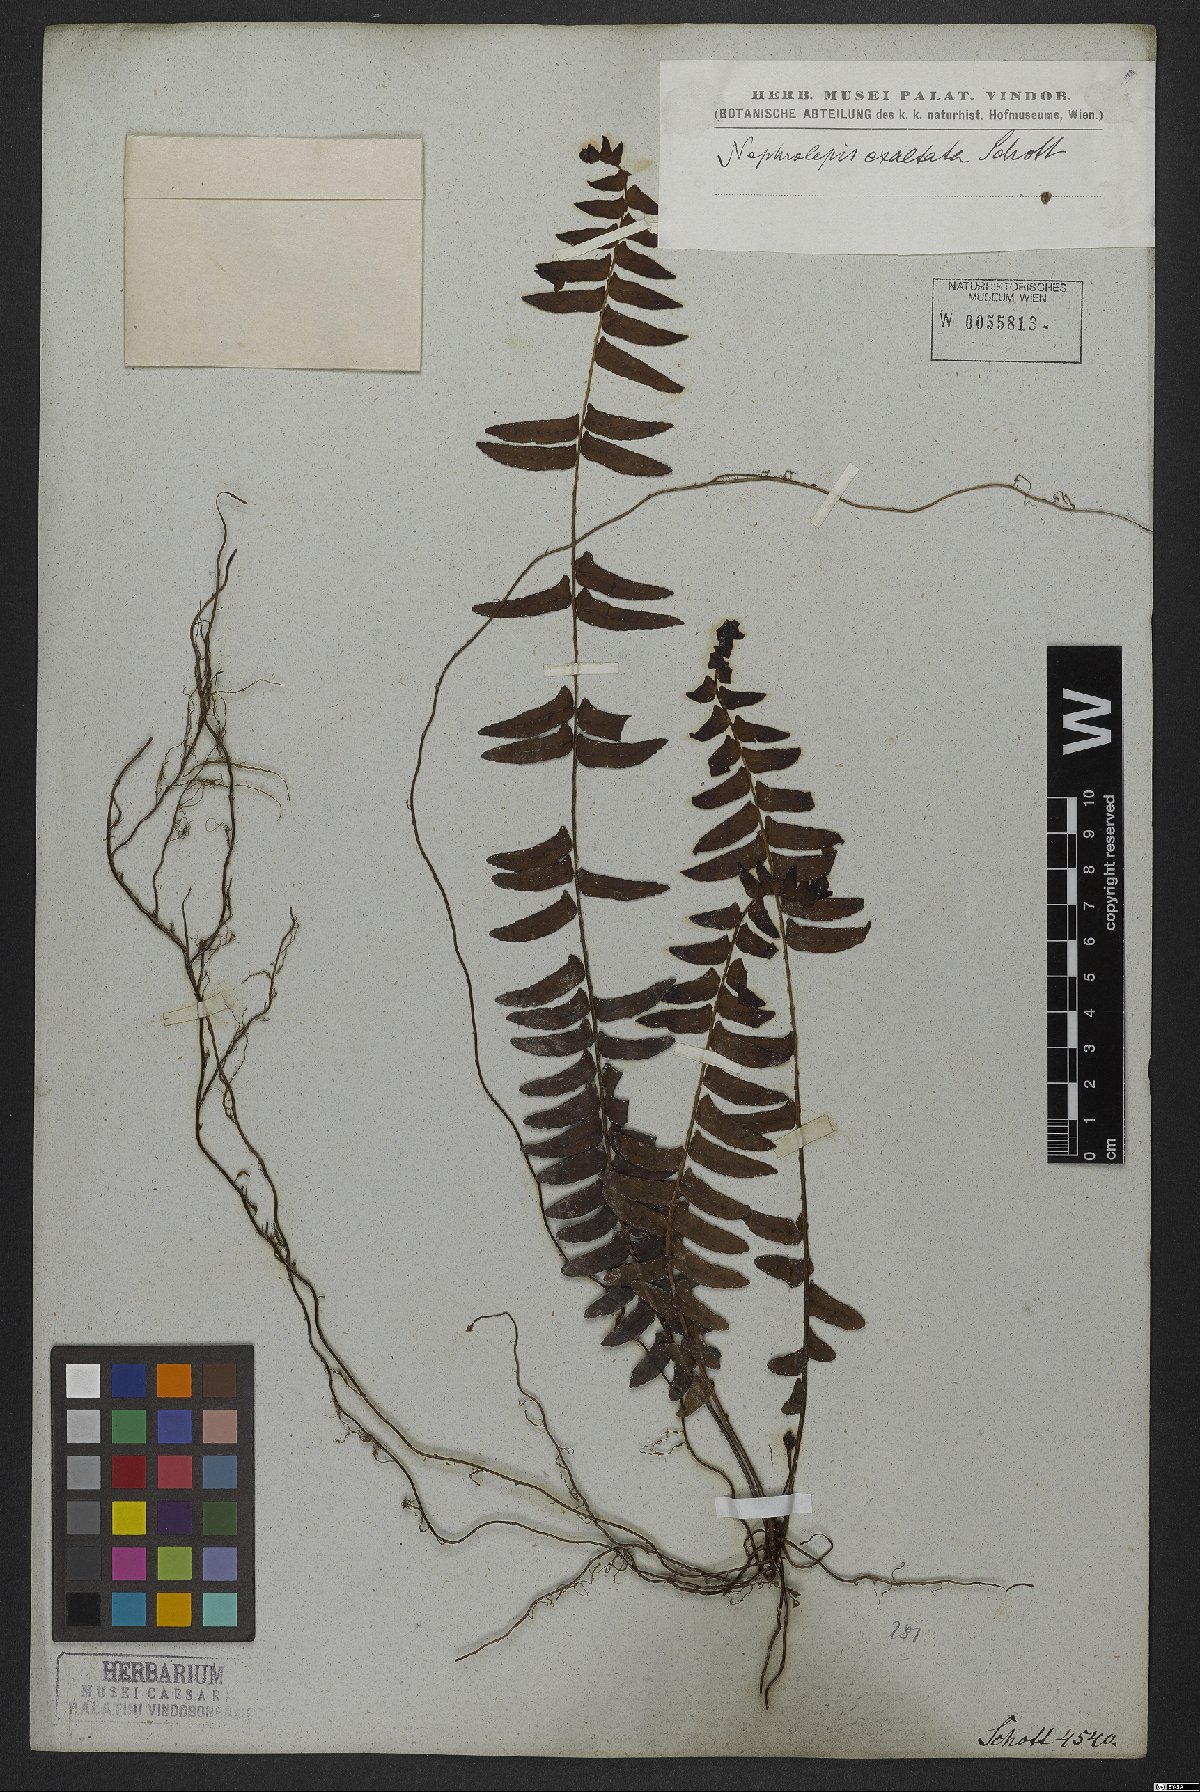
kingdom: Plantae
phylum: Tracheophyta
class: Polypodiopsida
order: Polypodiales
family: Nephrolepidaceae
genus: Nephrolepis
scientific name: Nephrolepis exaltata
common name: Sword fern
